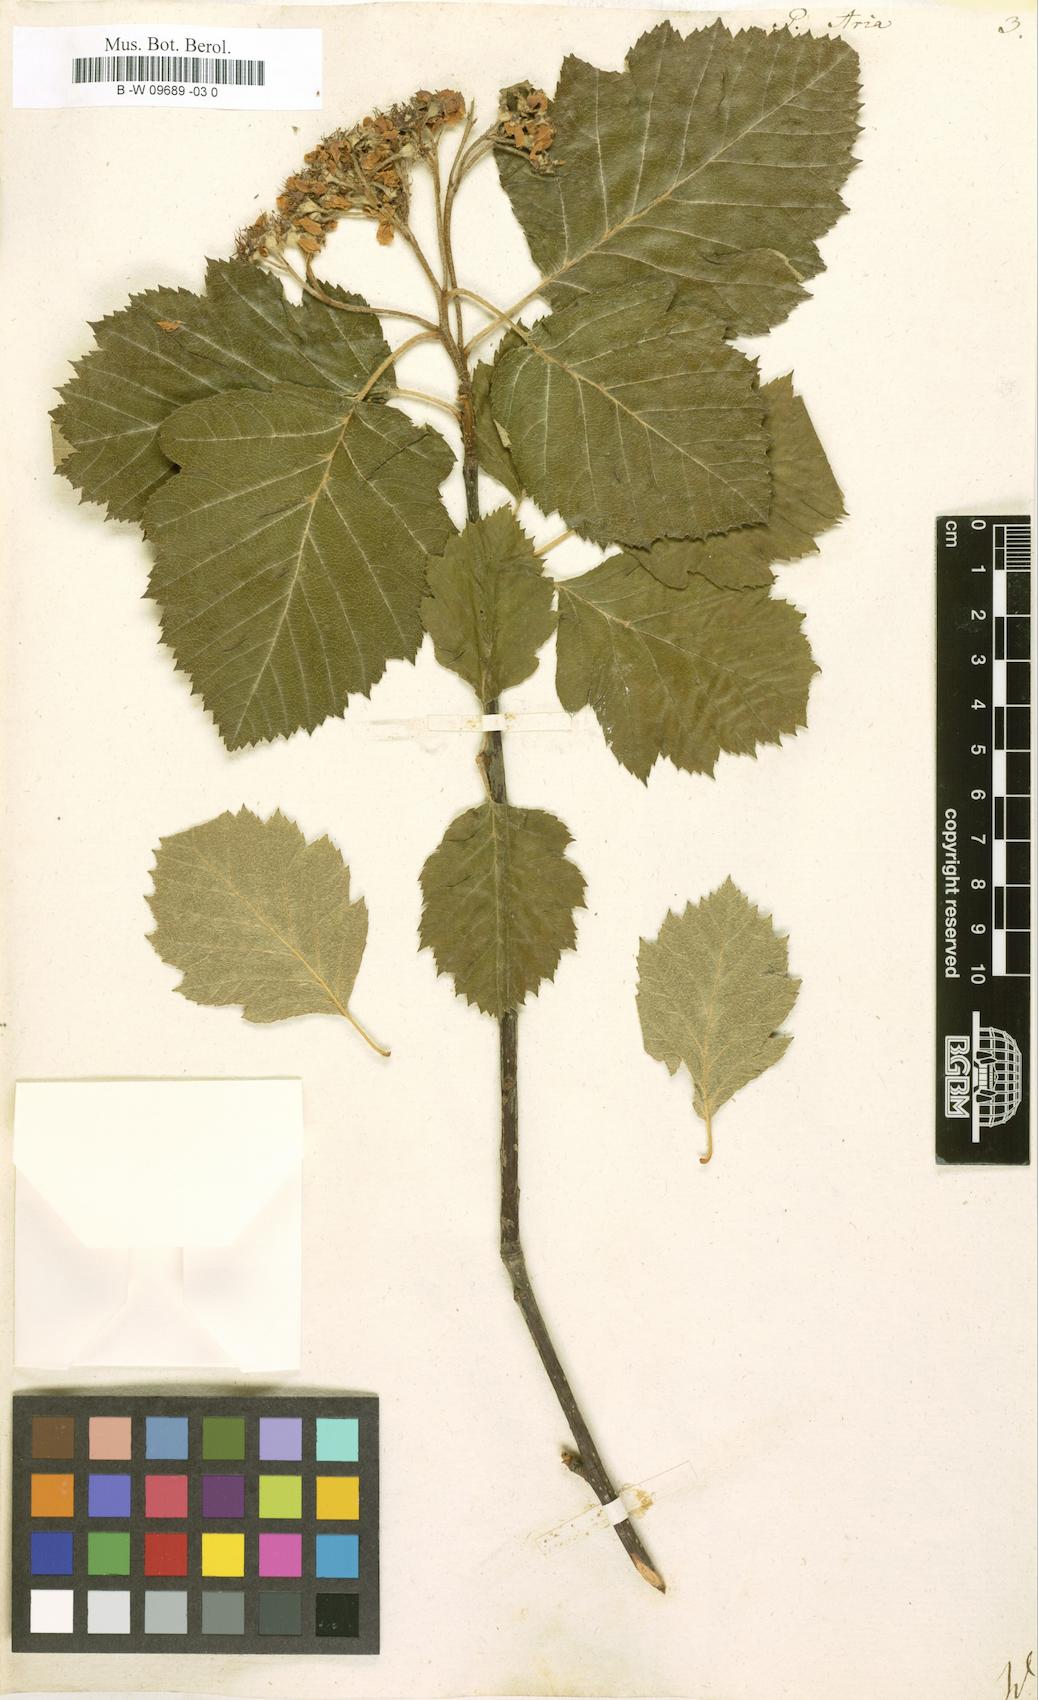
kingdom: Plantae
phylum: Tracheophyta
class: Magnoliopsida
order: Rosales
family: Rosaceae
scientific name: Rosaceae
